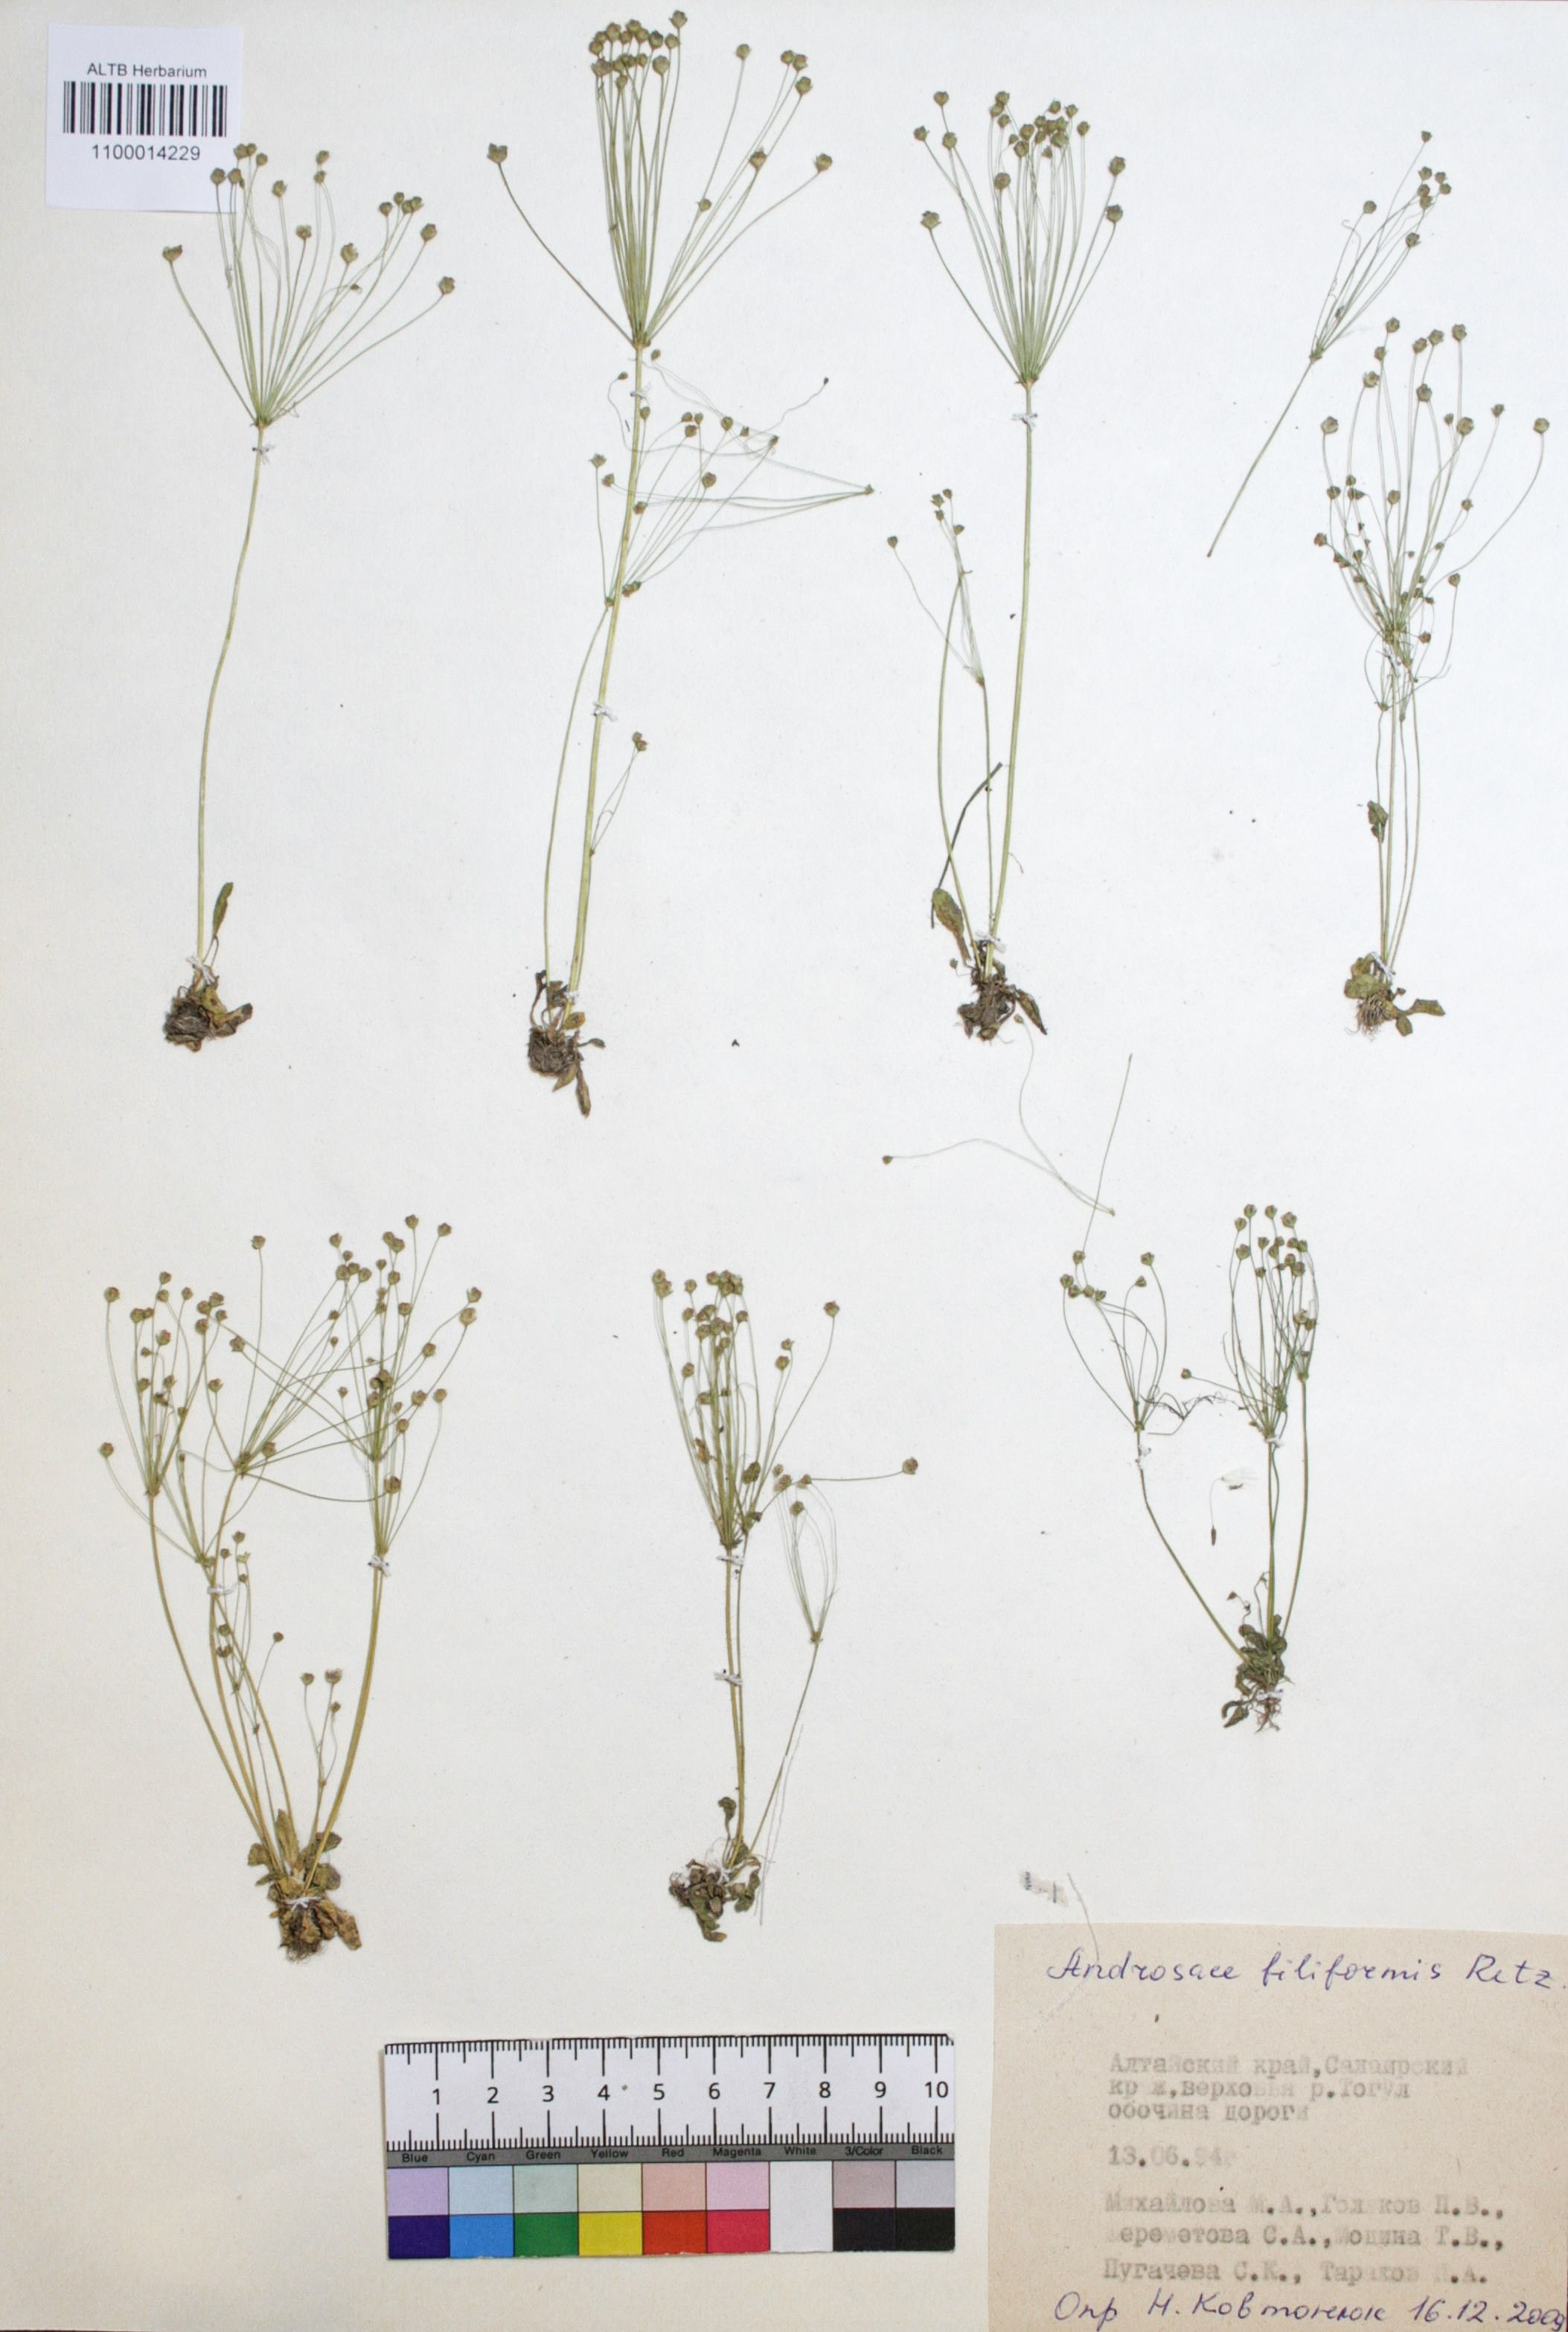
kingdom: Plantae
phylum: Tracheophyta
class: Magnoliopsida
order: Ericales
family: Primulaceae
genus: Androsace
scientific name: Androsace filiformis
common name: Filiform rock jasmine
